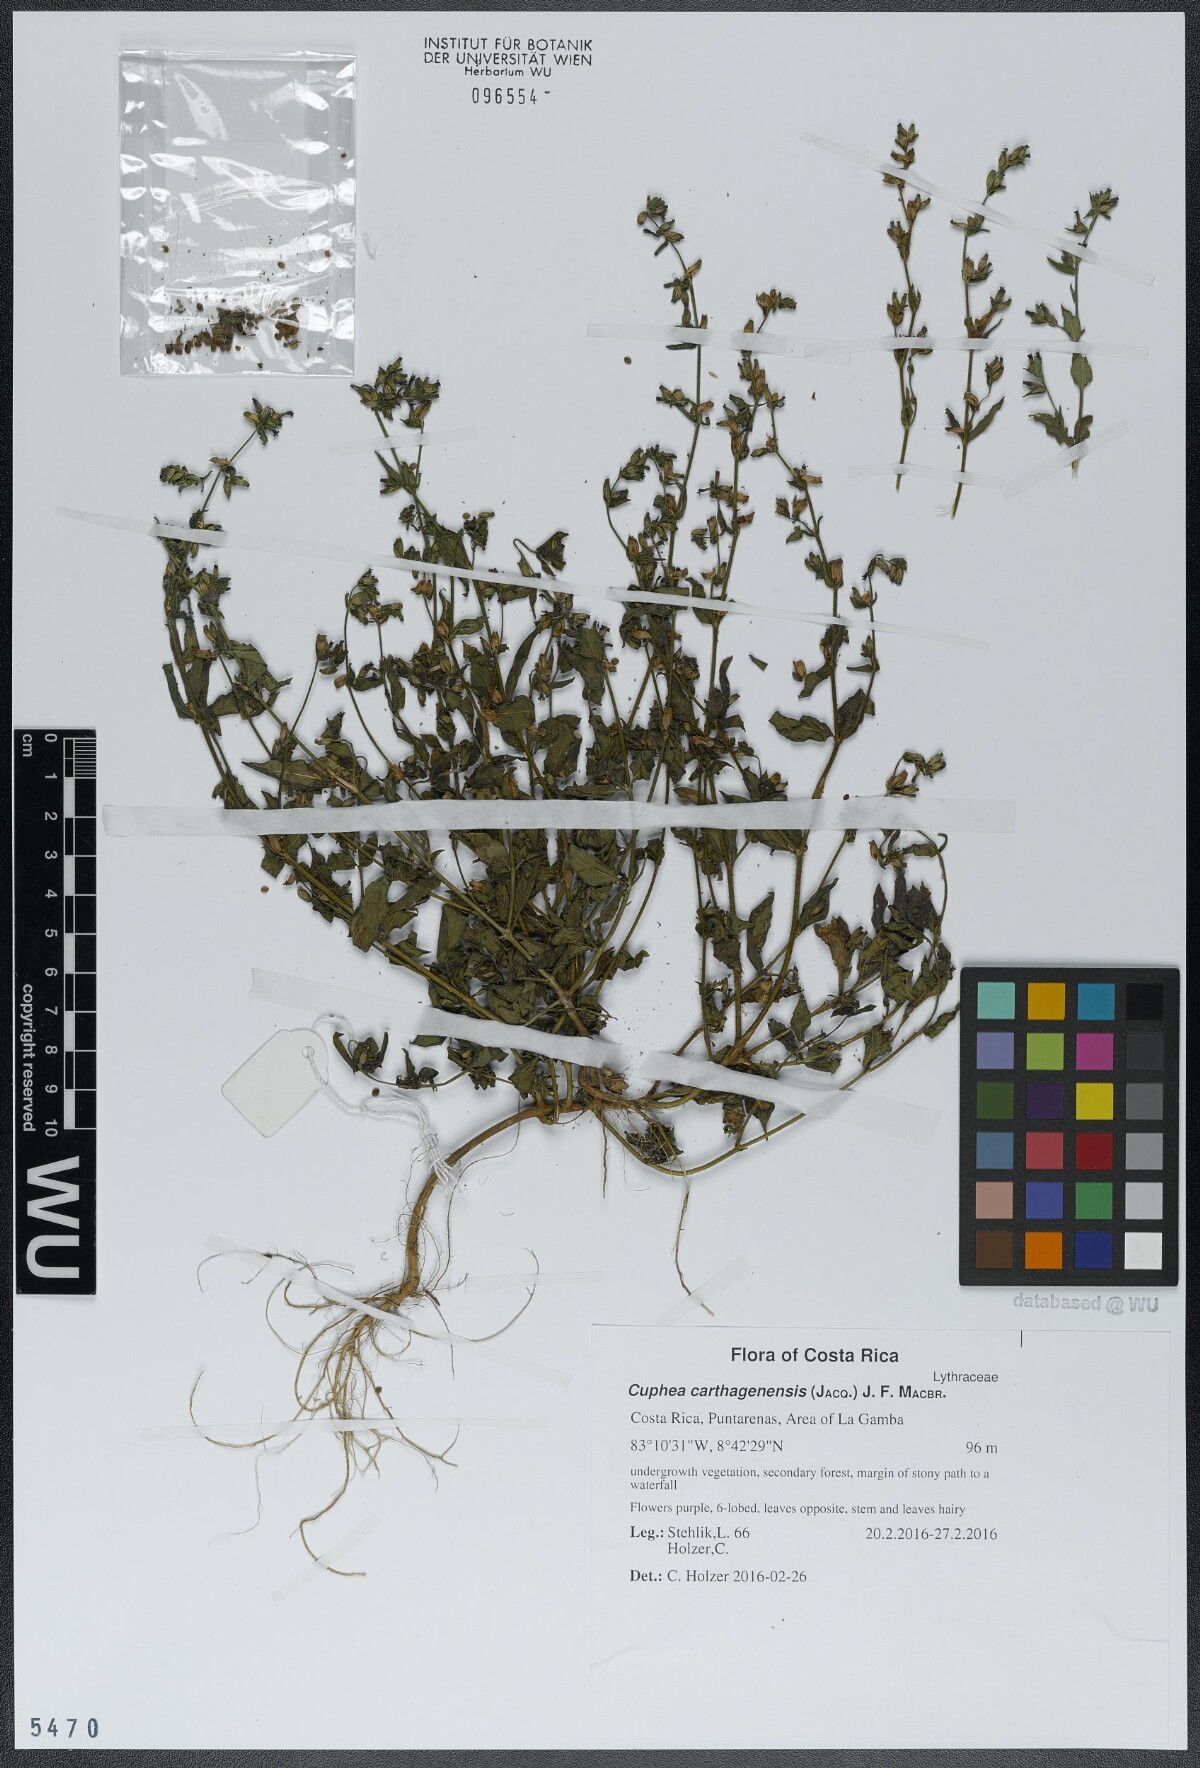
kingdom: Plantae
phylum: Tracheophyta
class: Magnoliopsida
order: Myrtales
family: Lythraceae
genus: Cuphea
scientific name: Cuphea carthagenensis
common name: Colombian waxweed
